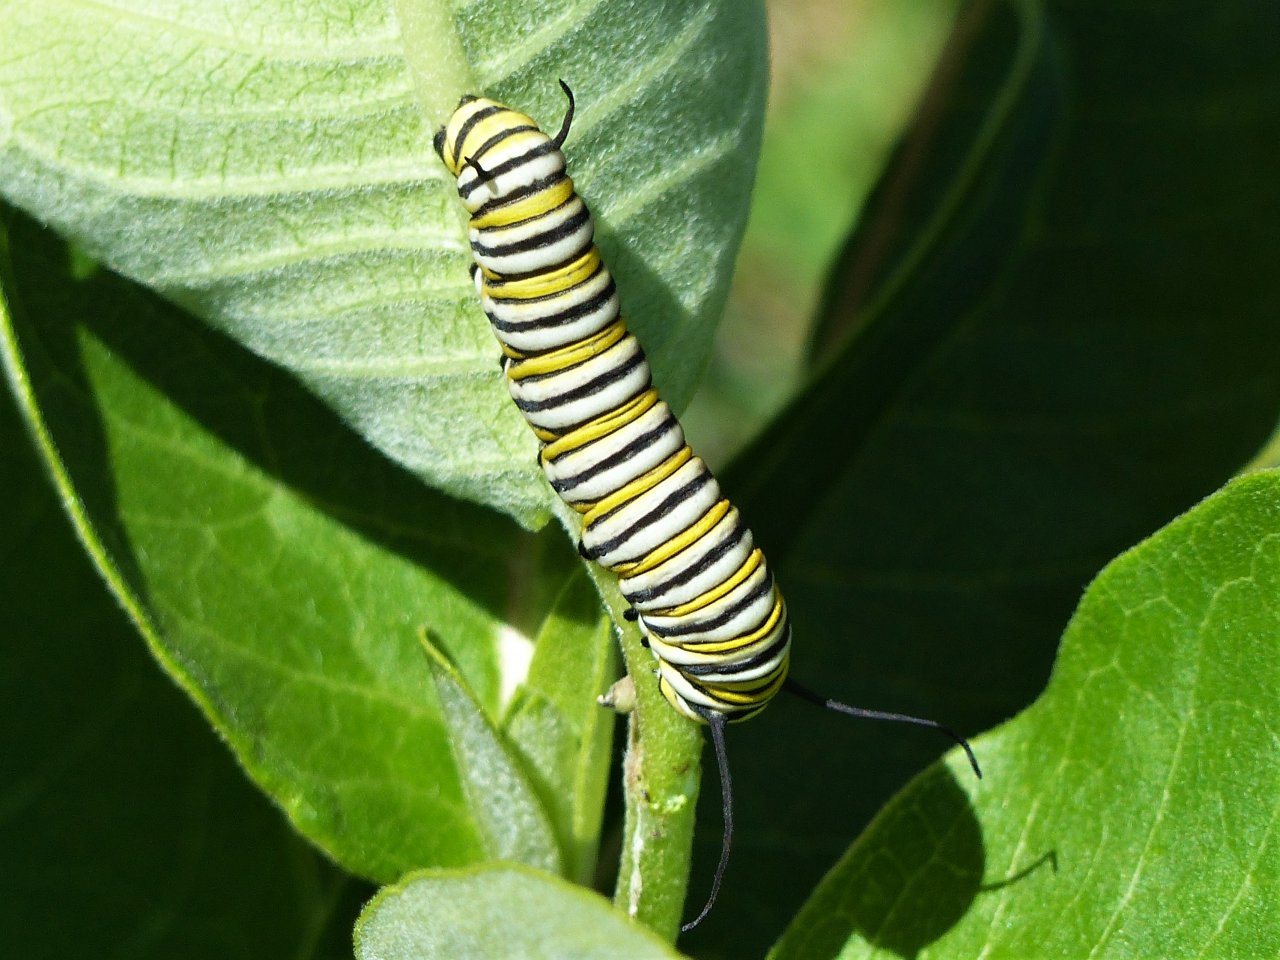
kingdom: Animalia
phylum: Arthropoda
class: Insecta
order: Lepidoptera
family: Nymphalidae
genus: Danaus
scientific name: Danaus plexippus
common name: Monarch
